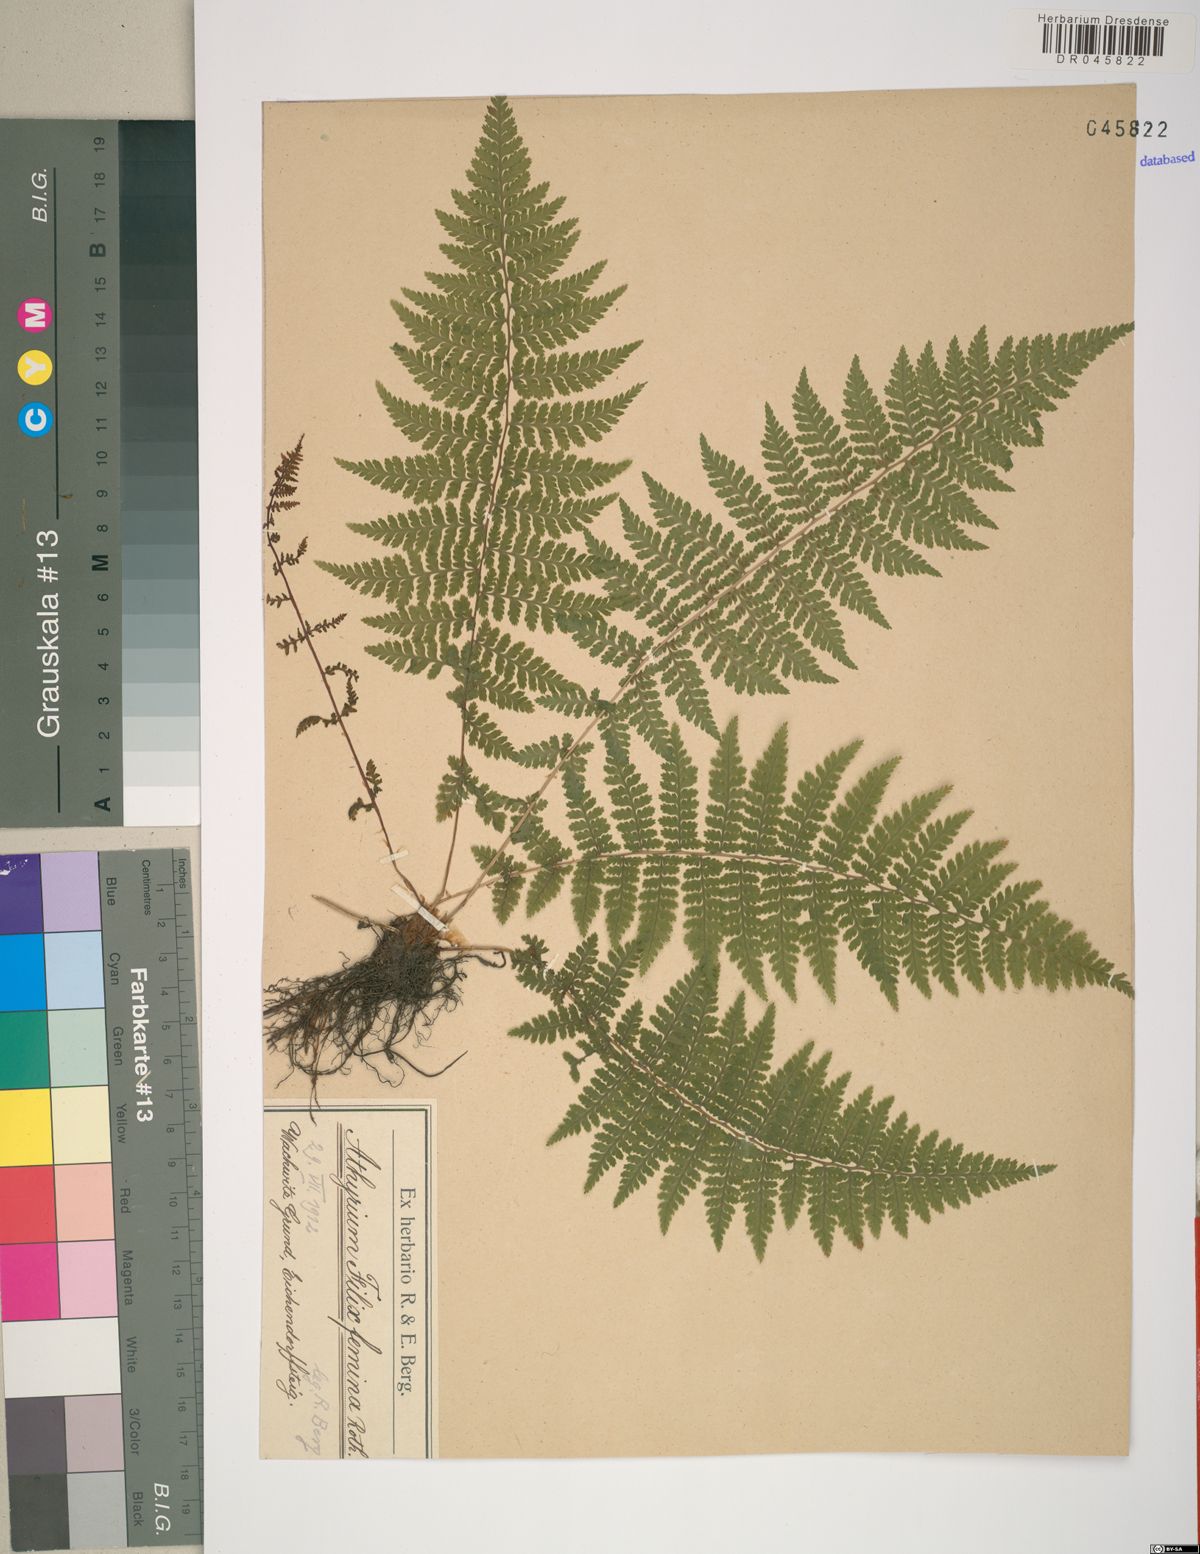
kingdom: Plantae
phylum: Tracheophyta
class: Polypodiopsida
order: Polypodiales
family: Athyriaceae
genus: Athyrium
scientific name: Athyrium filix-femina
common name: Lady fern
